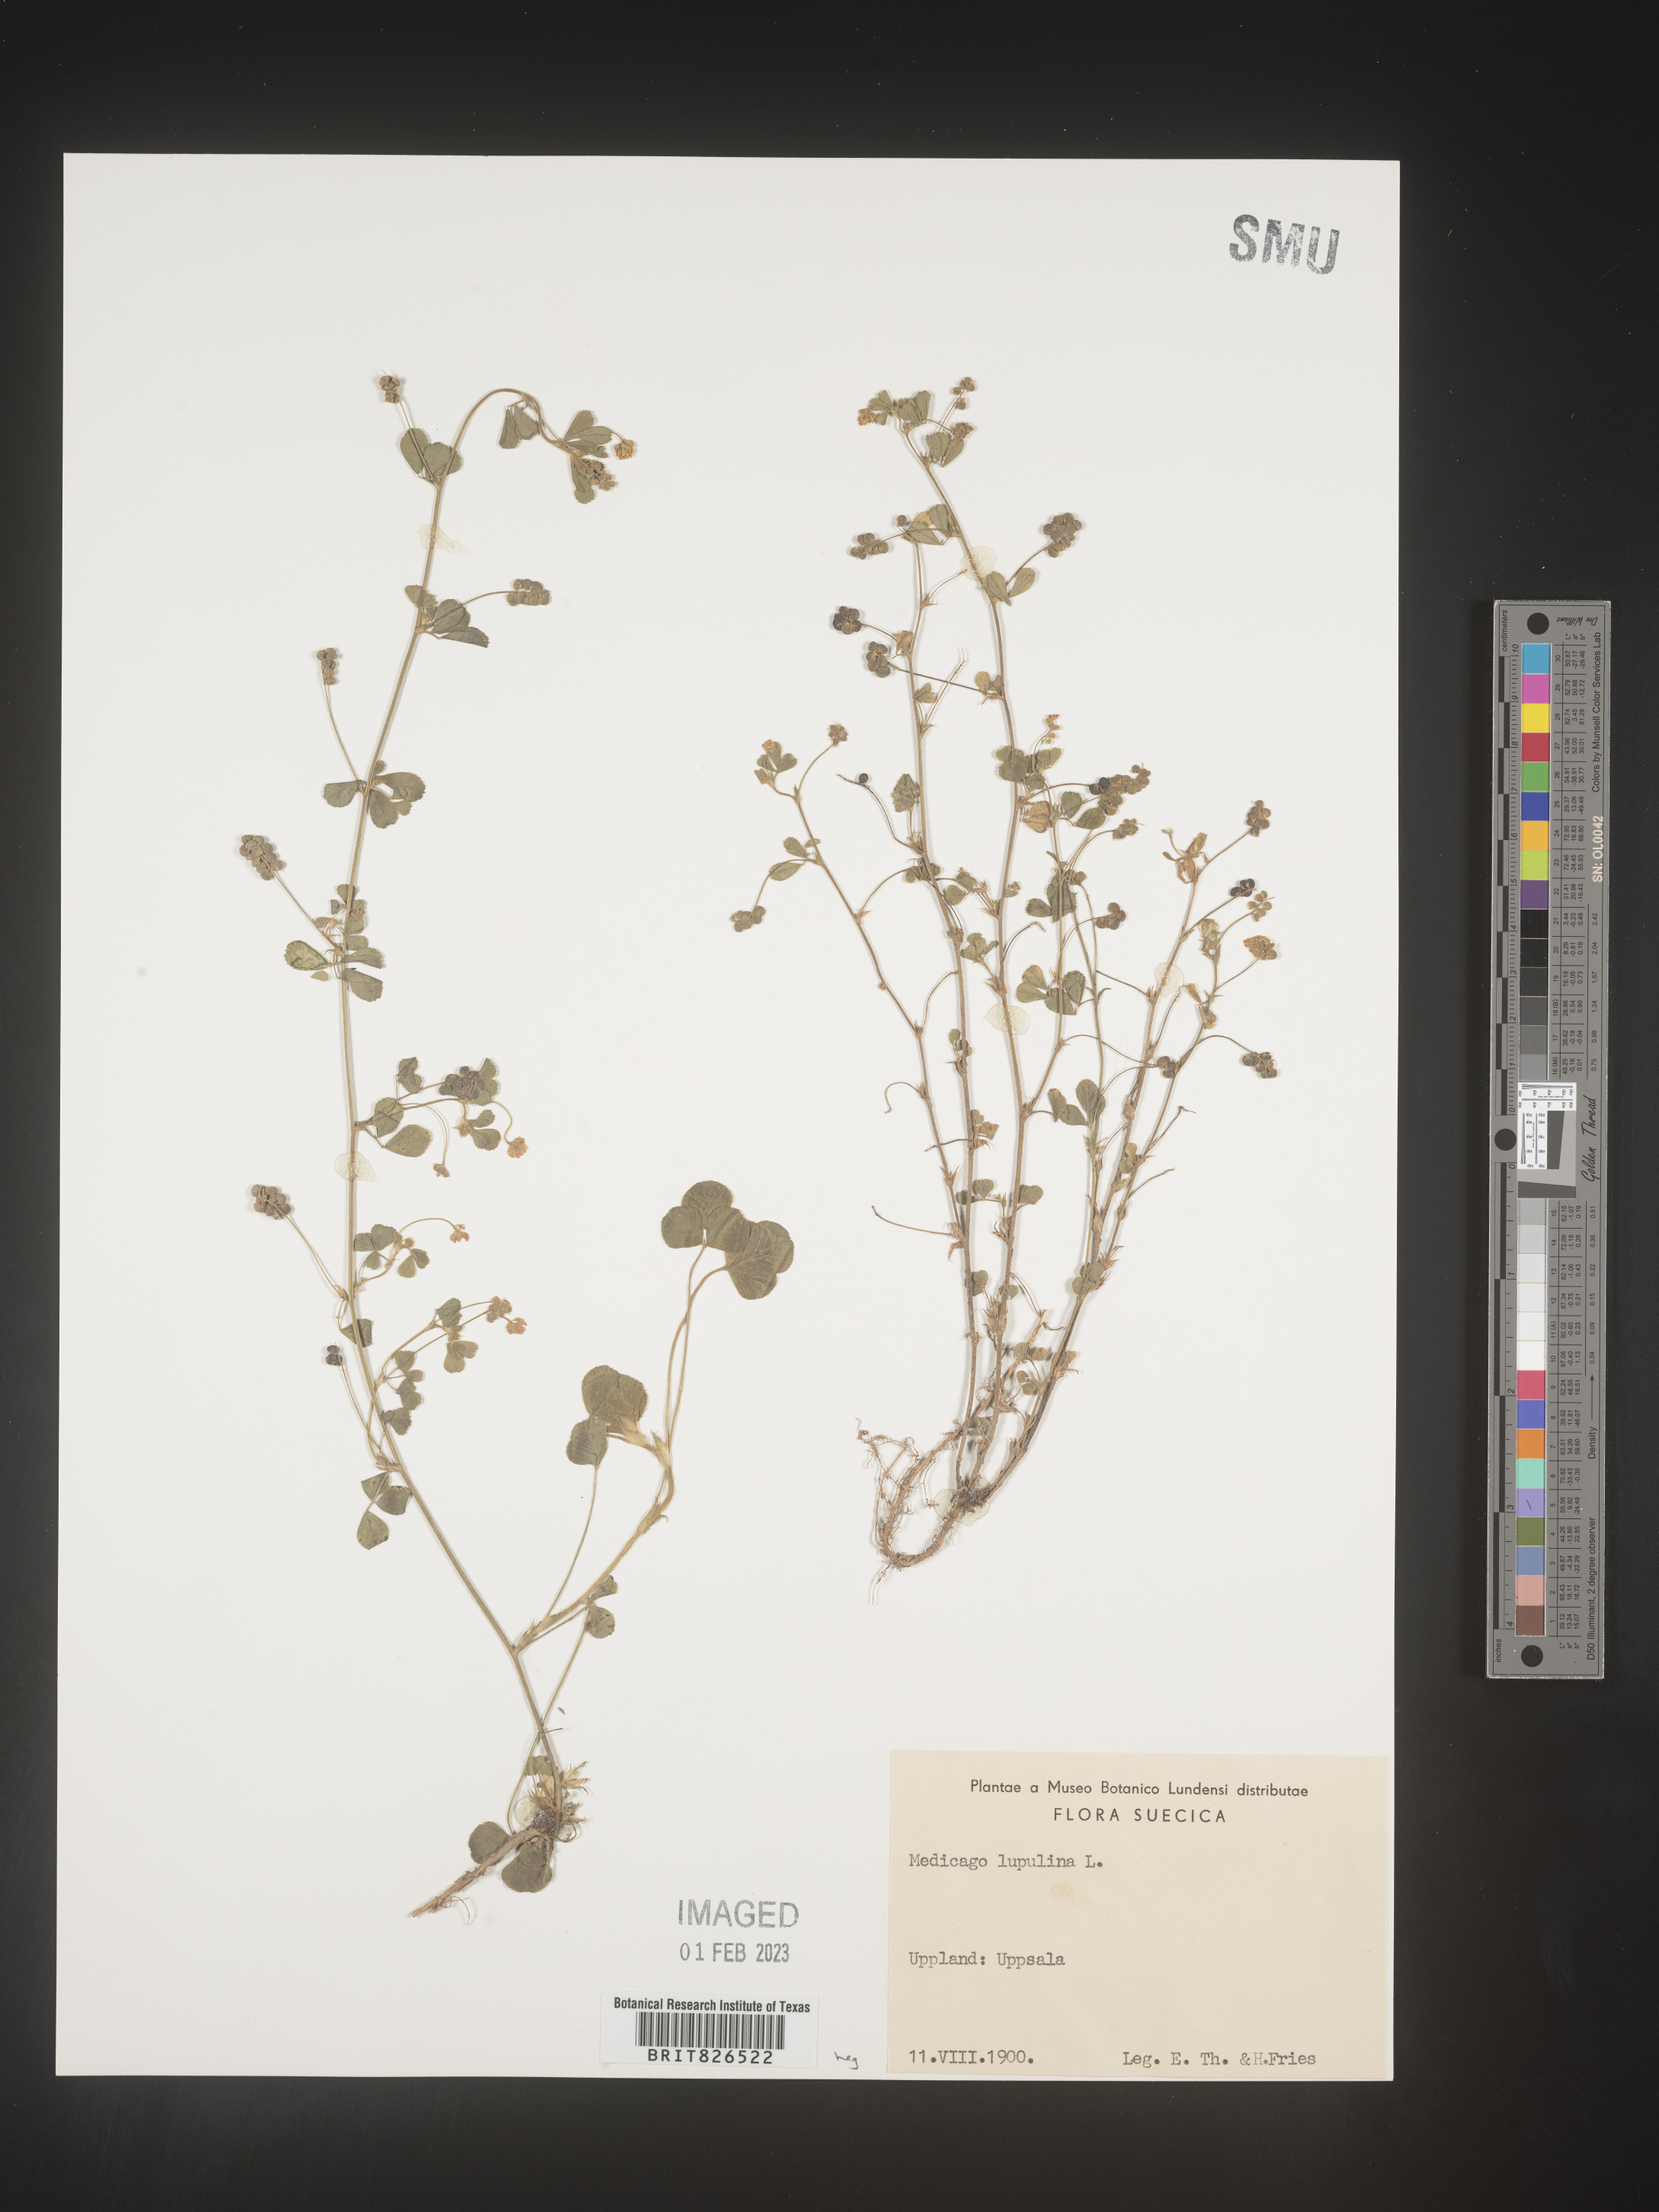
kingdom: Plantae
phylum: Tracheophyta
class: Magnoliopsida
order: Fabales
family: Fabaceae
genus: Medicago
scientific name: Medicago
